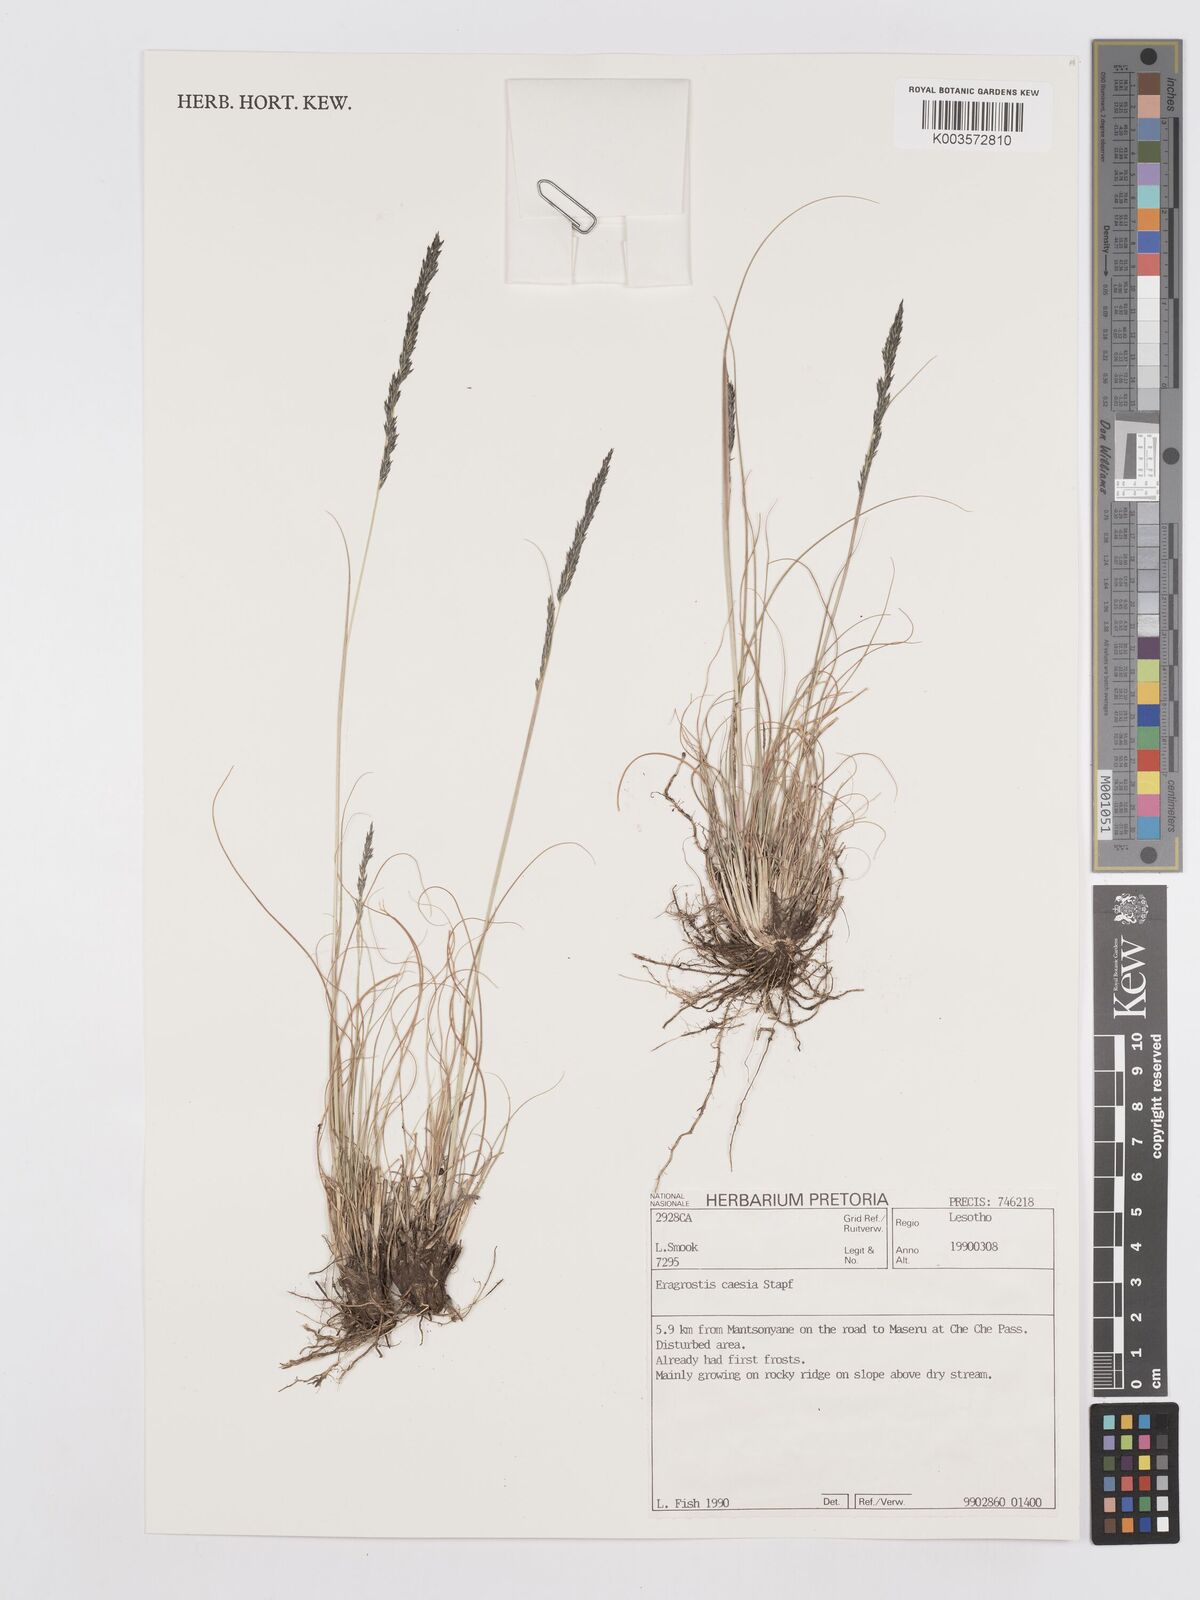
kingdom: Plantae
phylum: Tracheophyta
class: Liliopsida
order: Poales
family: Poaceae
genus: Eragrostis
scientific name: Eragrostis caesia
